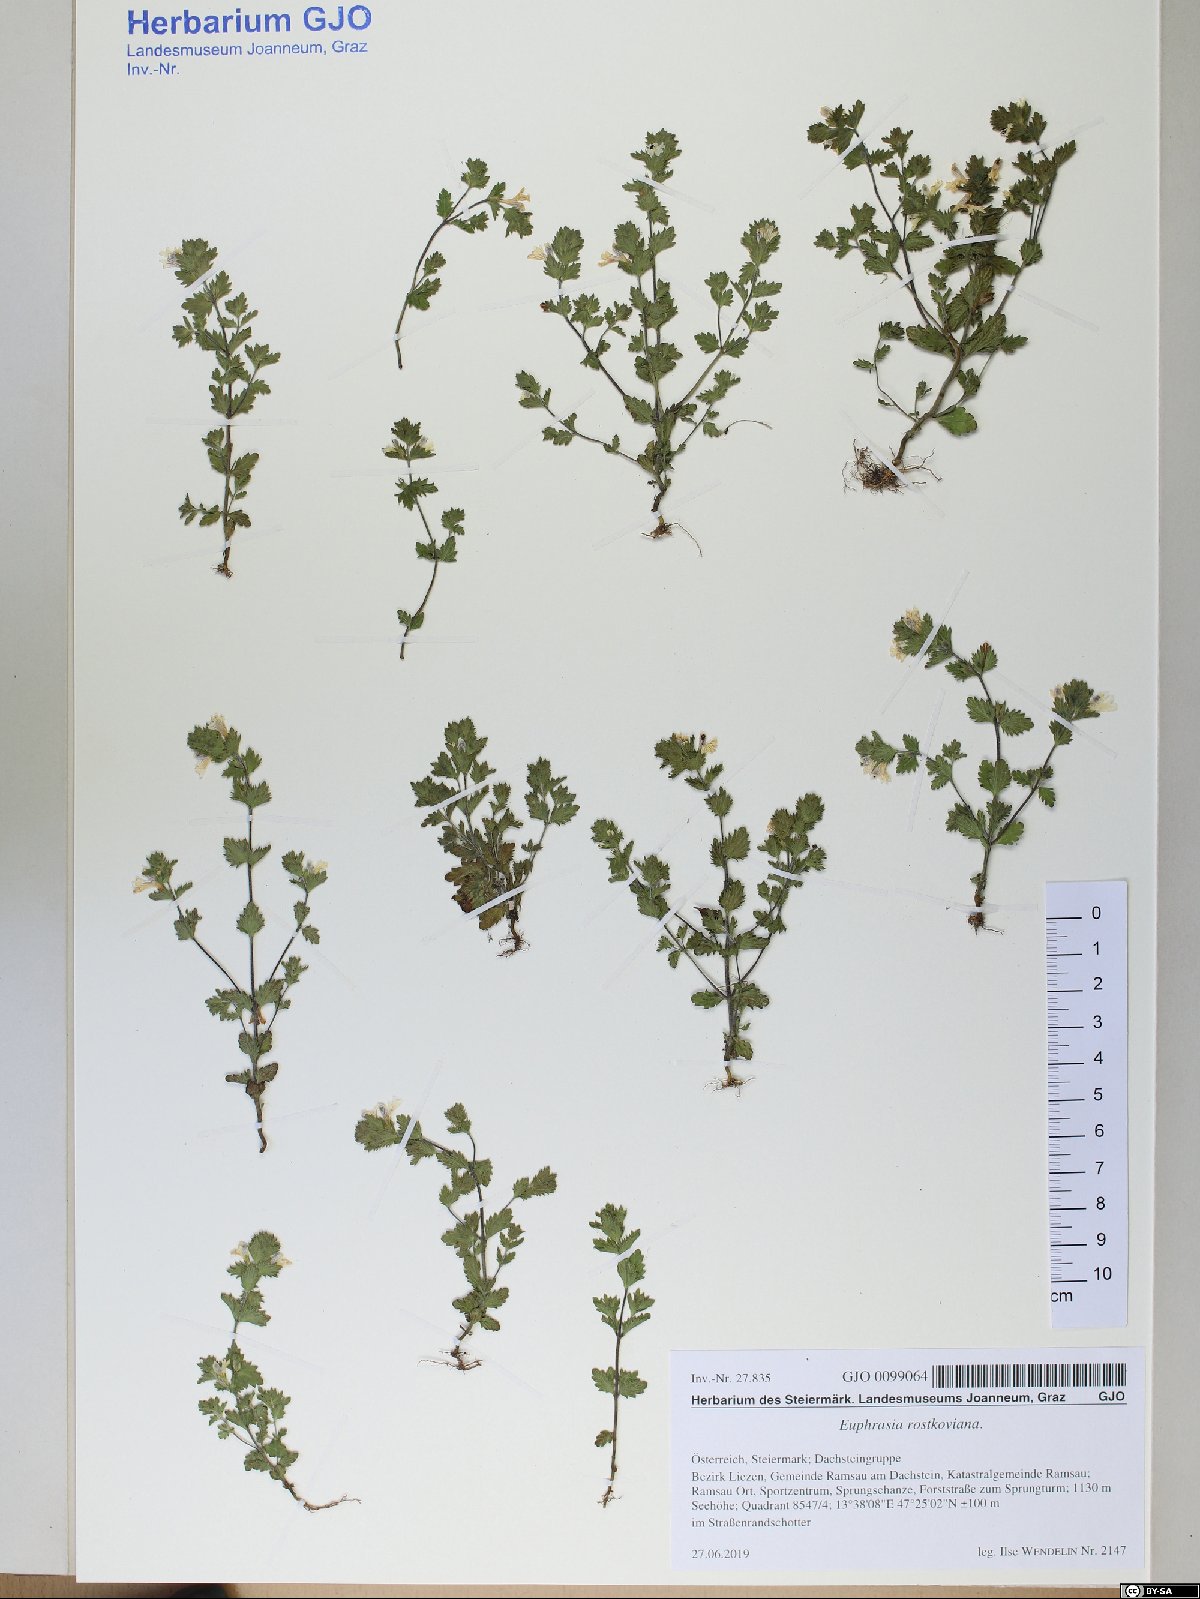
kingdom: Plantae
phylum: Tracheophyta
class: Magnoliopsida
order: Lamiales
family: Orobanchaceae
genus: Euphrasia
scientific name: Euphrasia officinalis
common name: Eyebright
